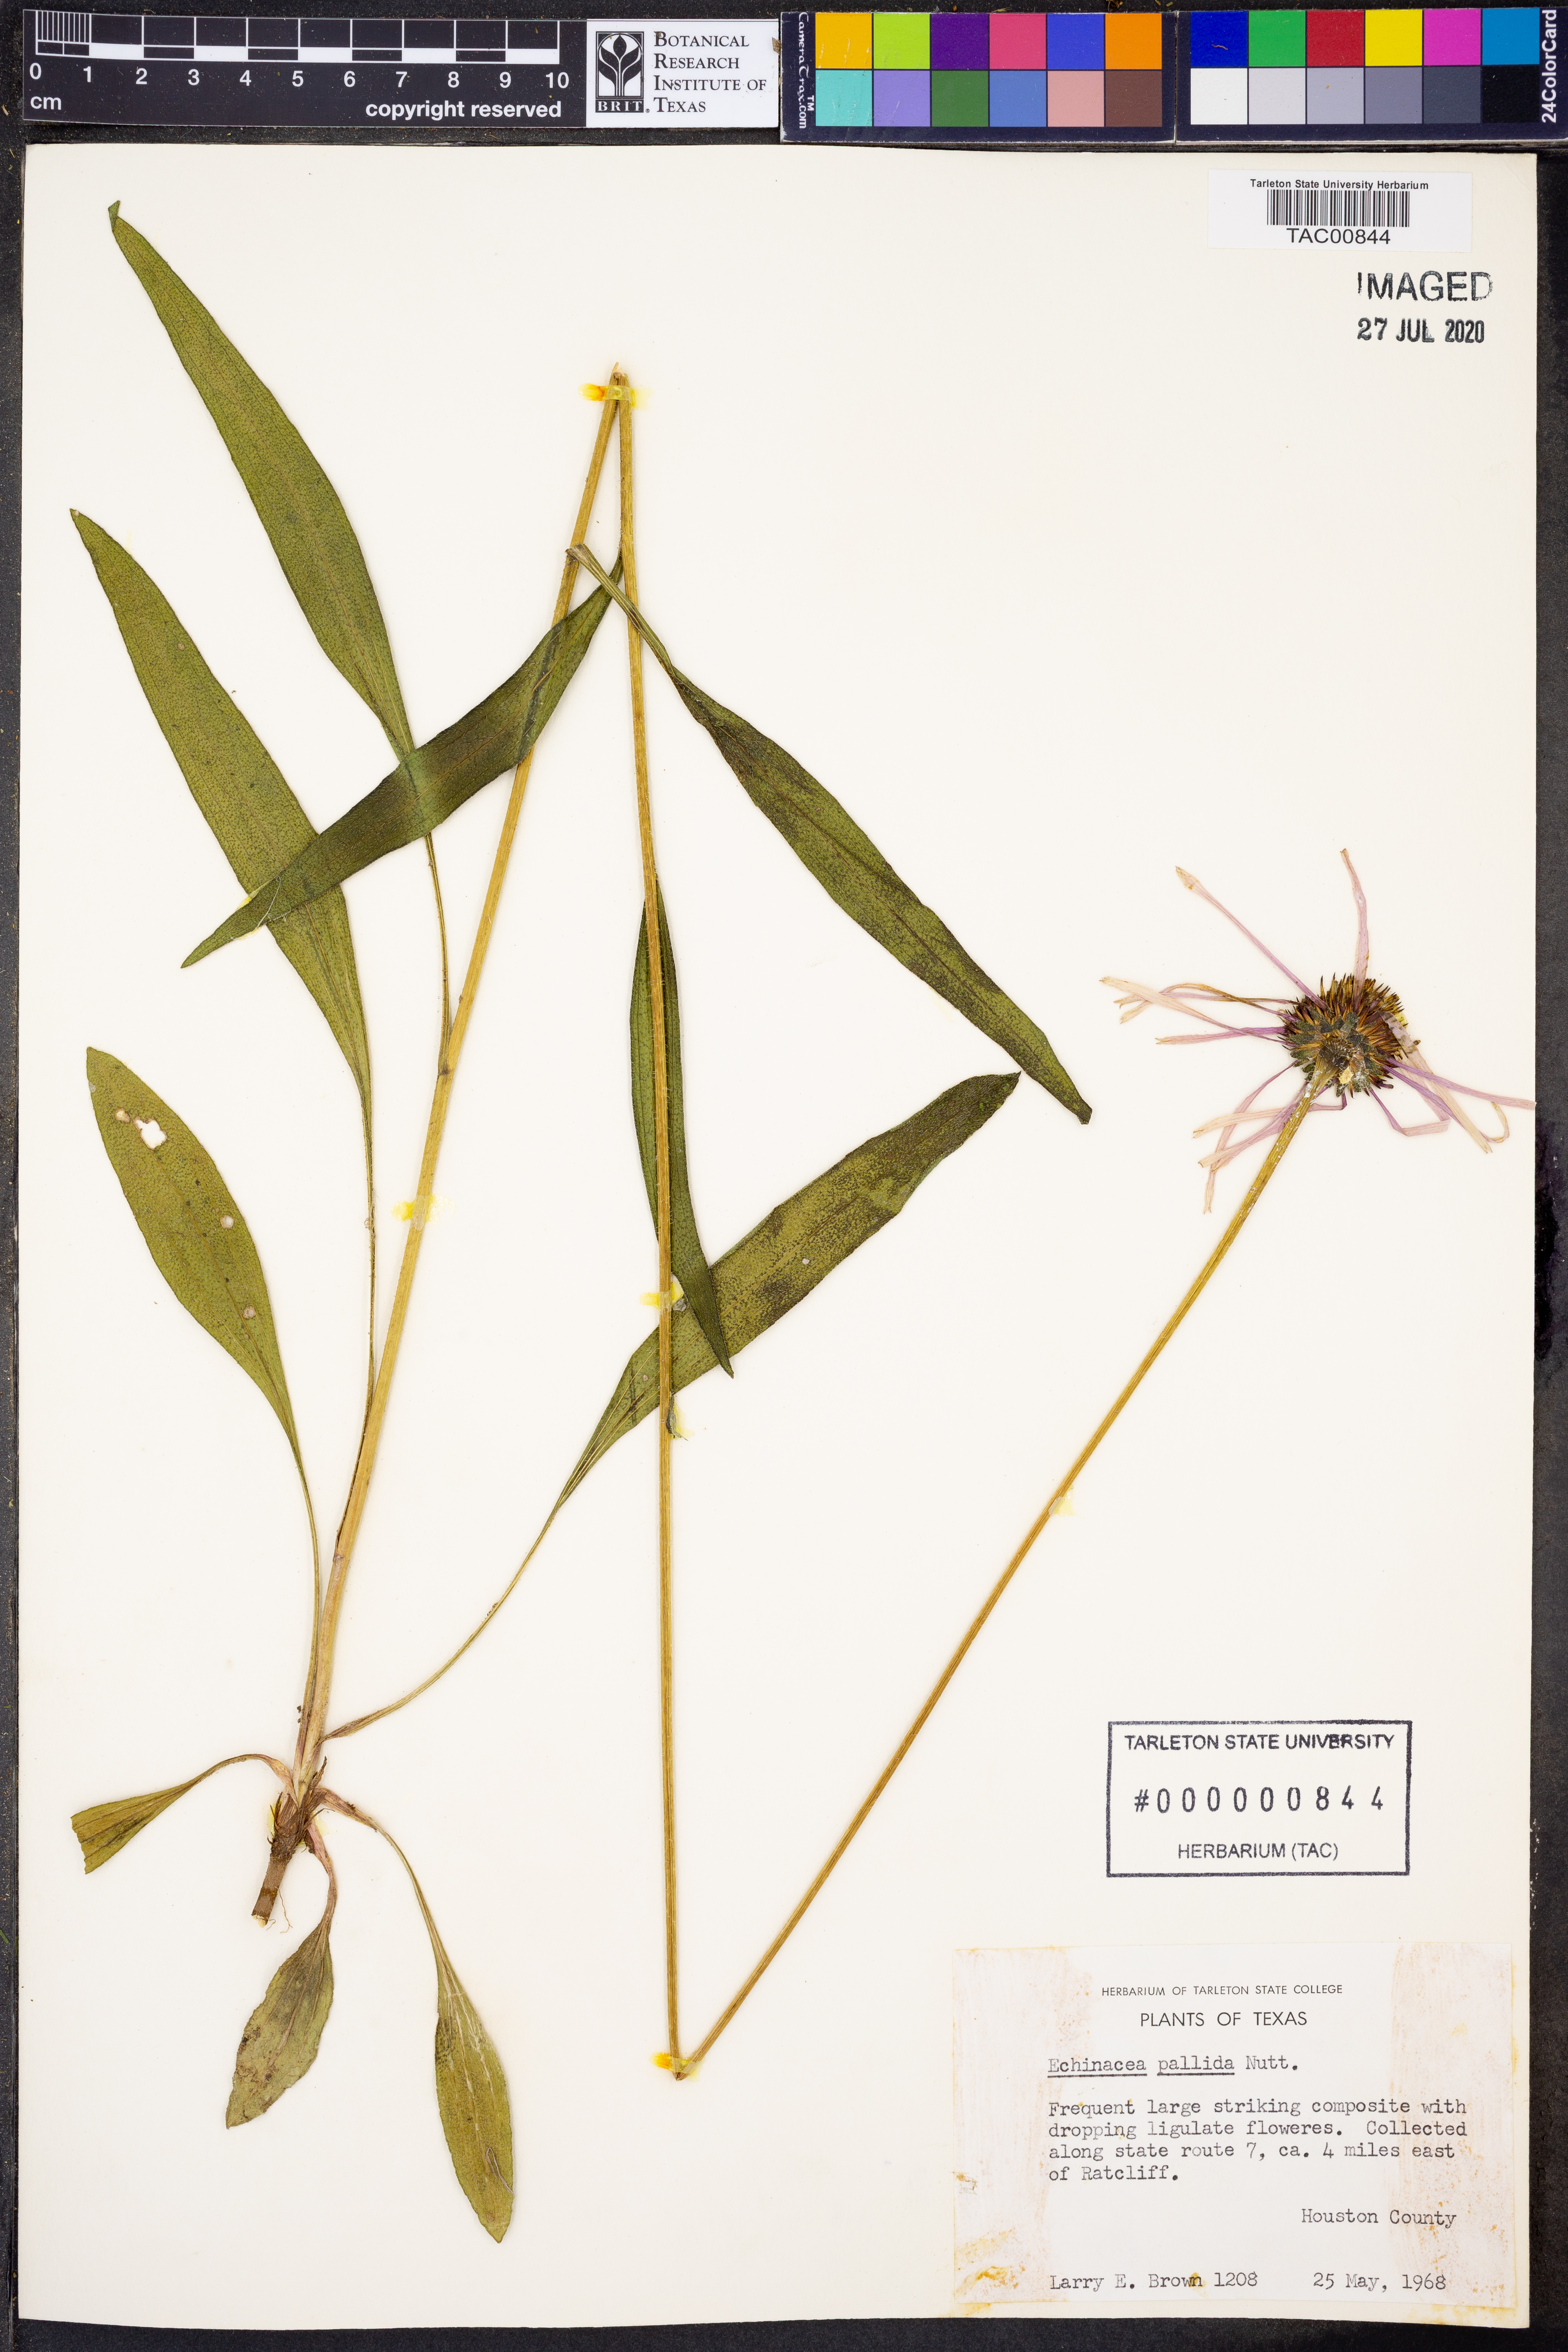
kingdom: Plantae
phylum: Tracheophyta
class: Magnoliopsida
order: Asterales
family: Asteraceae
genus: Echinacea
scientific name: Echinacea pallida
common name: Pale echinacea
